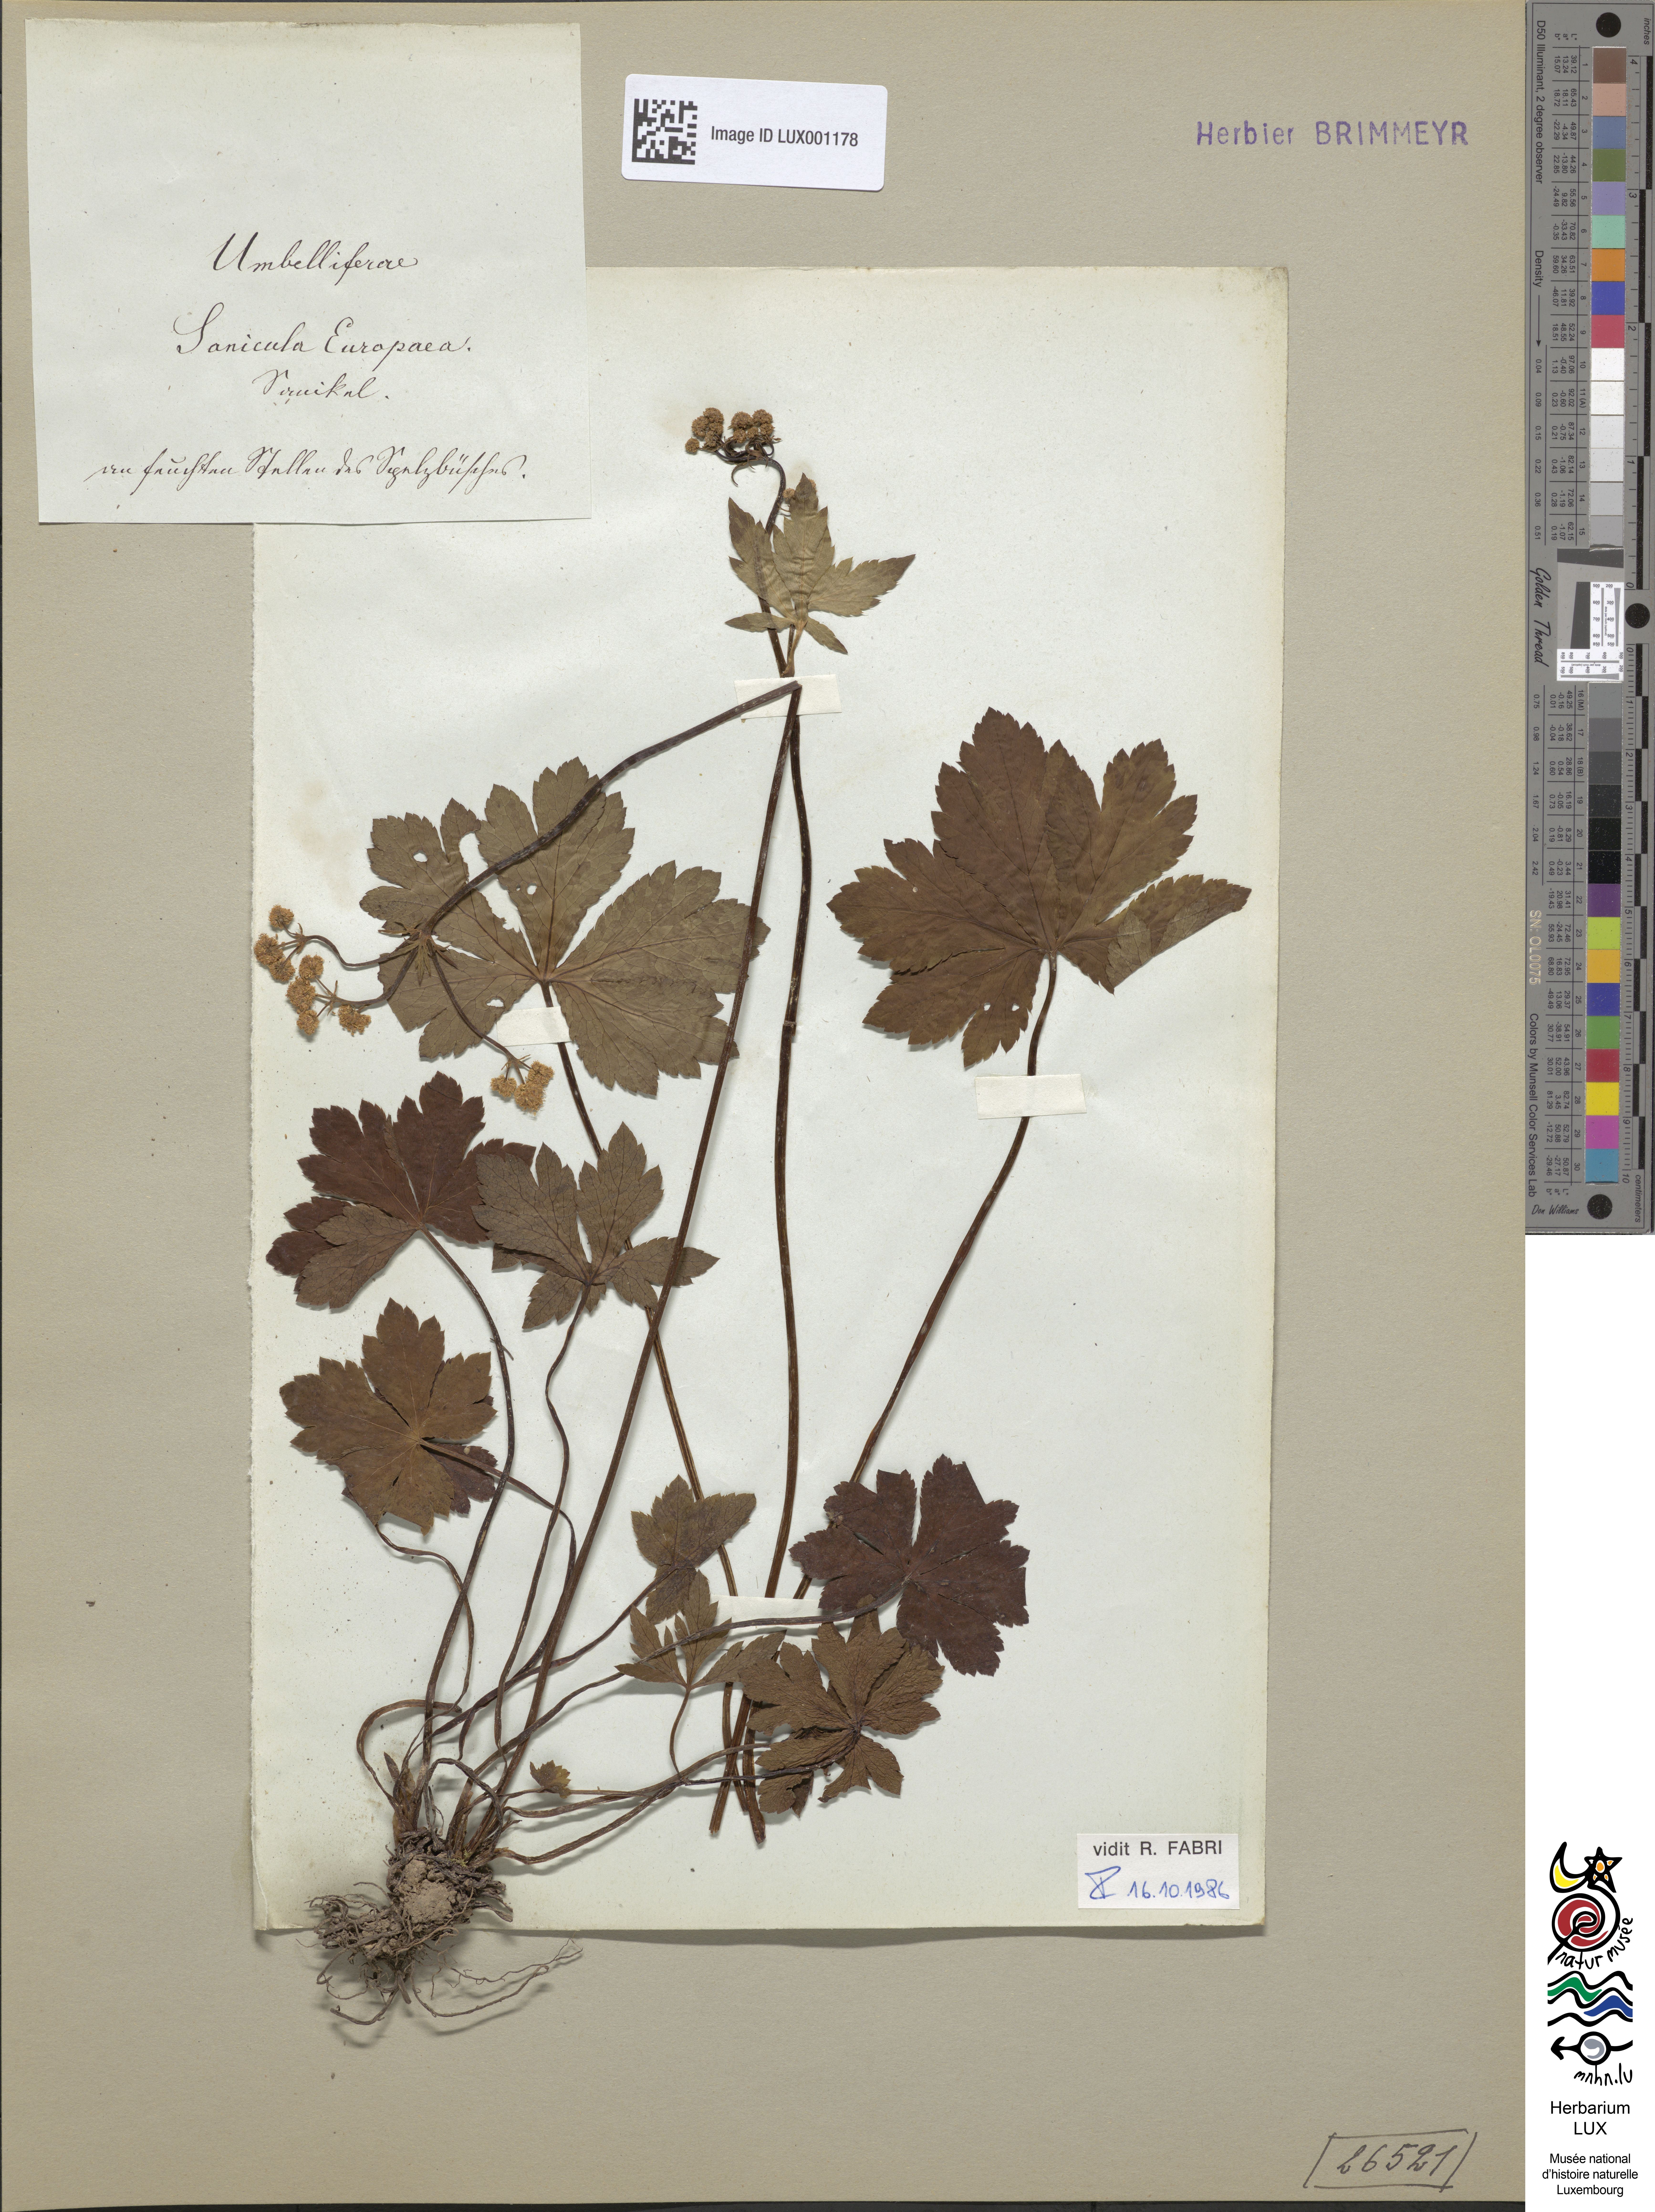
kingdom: Plantae
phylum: Tracheophyta
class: Magnoliopsida
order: Apiales
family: Apiaceae
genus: Sanicula
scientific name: Sanicula europaea
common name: Sanicle
